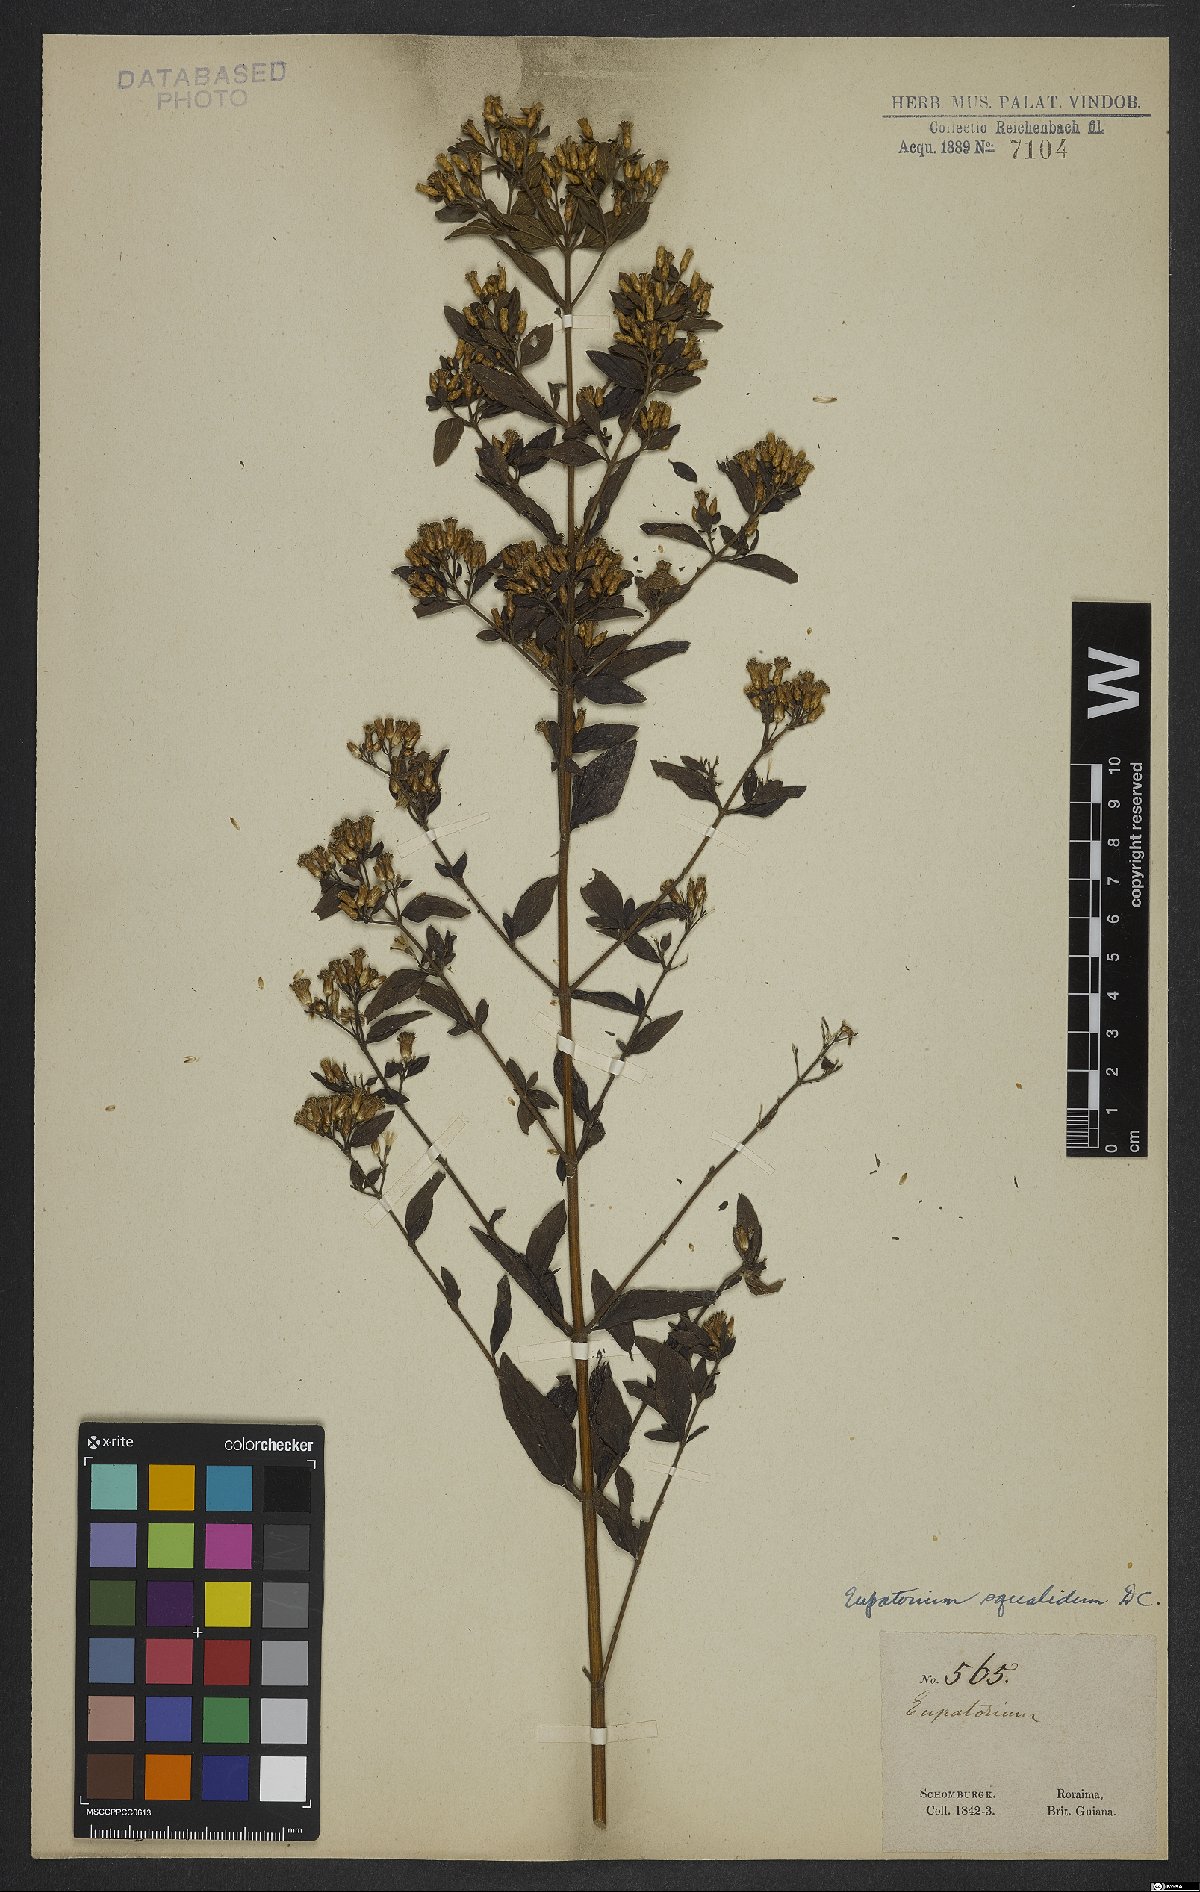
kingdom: Plantae
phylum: Tracheophyta
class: Magnoliopsida
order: Asterales
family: Asteraceae
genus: Chromolaena
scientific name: Chromolaena squalida
